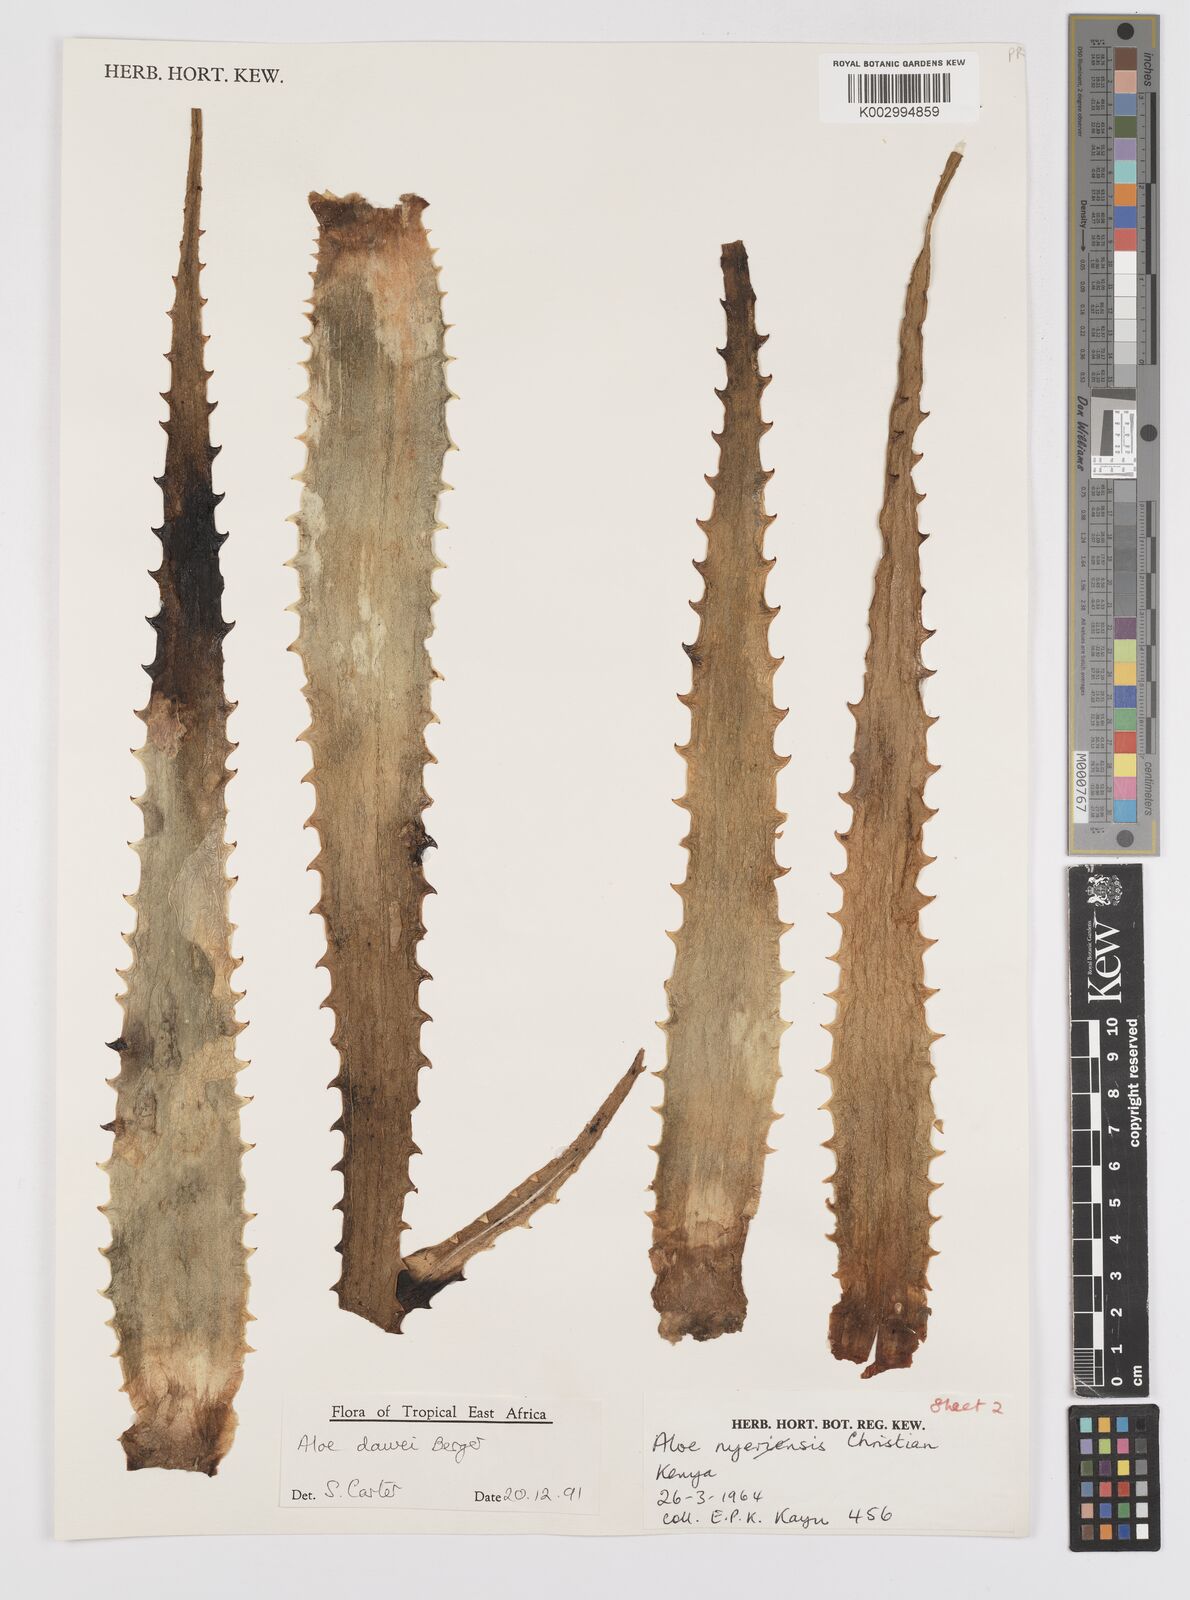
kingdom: Plantae
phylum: Tracheophyta
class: Liliopsida
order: Asparagales
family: Asphodelaceae
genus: Aloe
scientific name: Aloe
